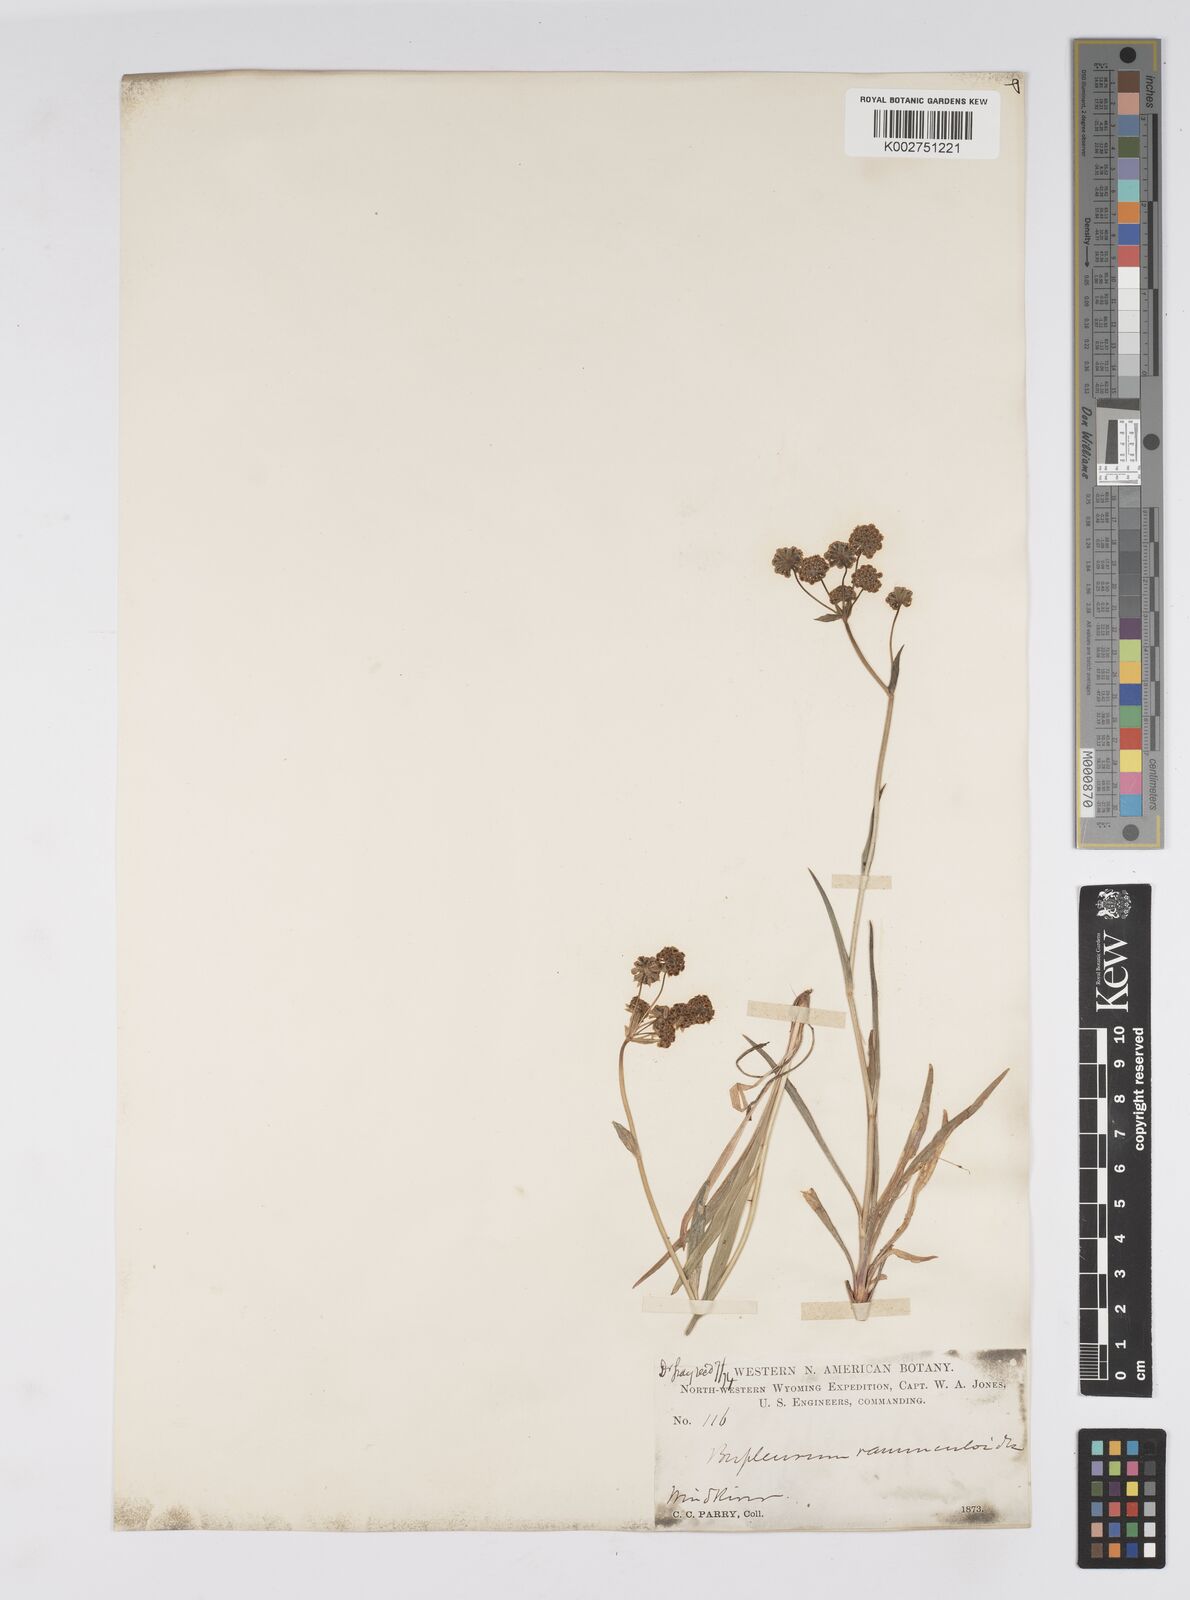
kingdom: Plantae
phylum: Tracheophyta
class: Magnoliopsida
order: Apiales
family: Apiaceae
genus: Bupleurum
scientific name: Bupleurum americanum
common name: American thoroughwax
